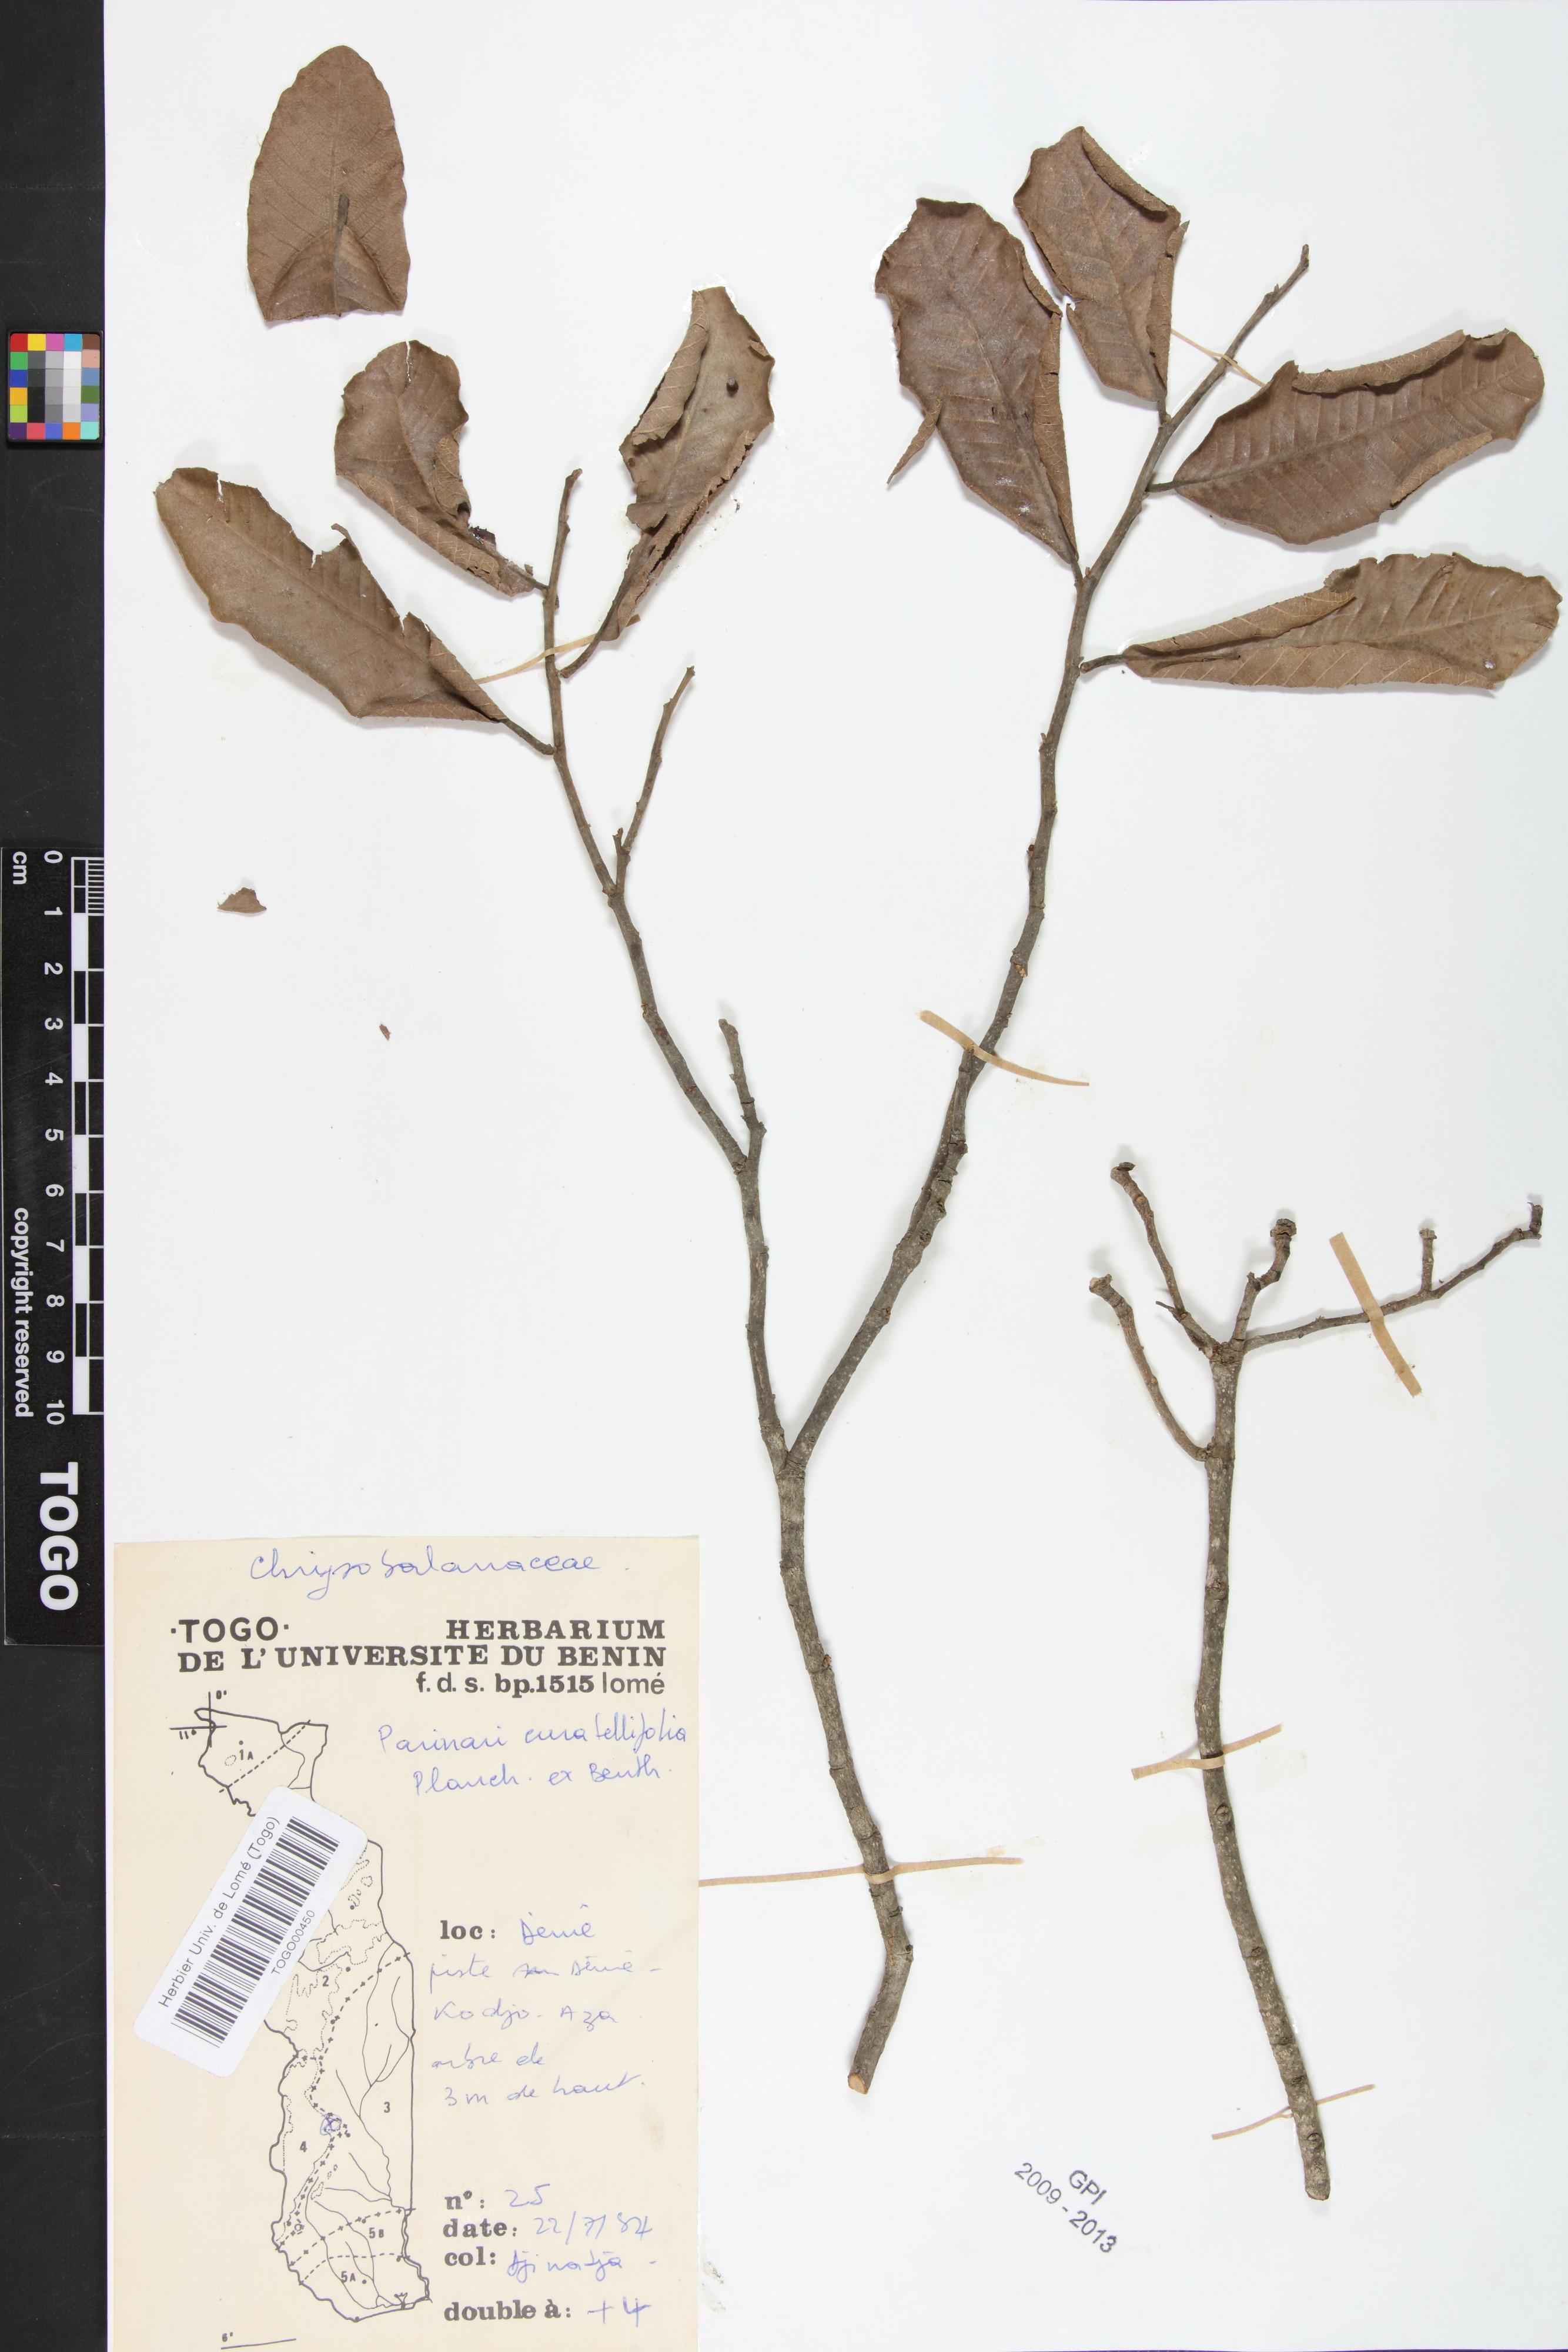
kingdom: Plantae
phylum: Tracheophyta
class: Magnoliopsida
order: Malpighiales
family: Chrysobalanaceae
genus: Parinari
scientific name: Parinari curatellifolia
